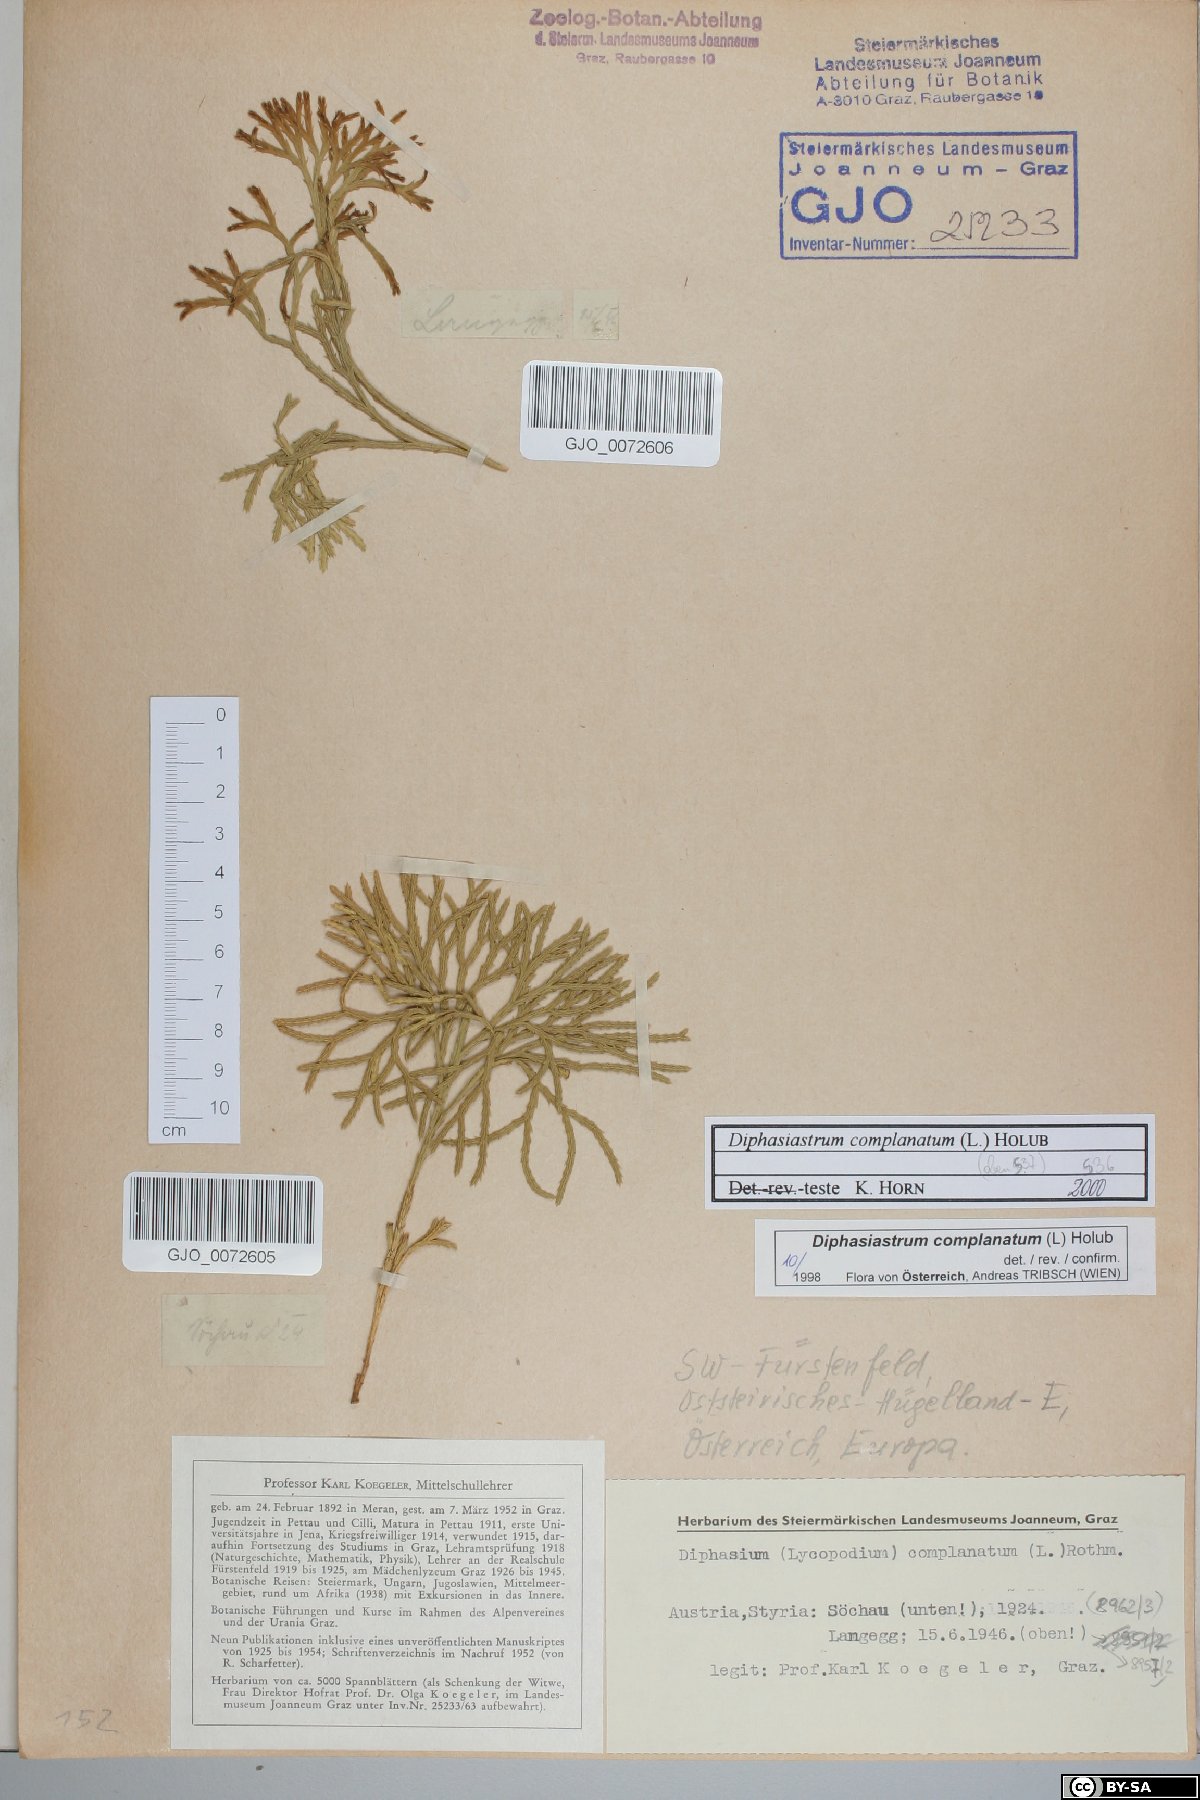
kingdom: Plantae
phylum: Tracheophyta
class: Lycopodiopsida
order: Lycopodiales
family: Lycopodiaceae
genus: Diphasiastrum
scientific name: Diphasiastrum complanatum
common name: Northern running-pine
